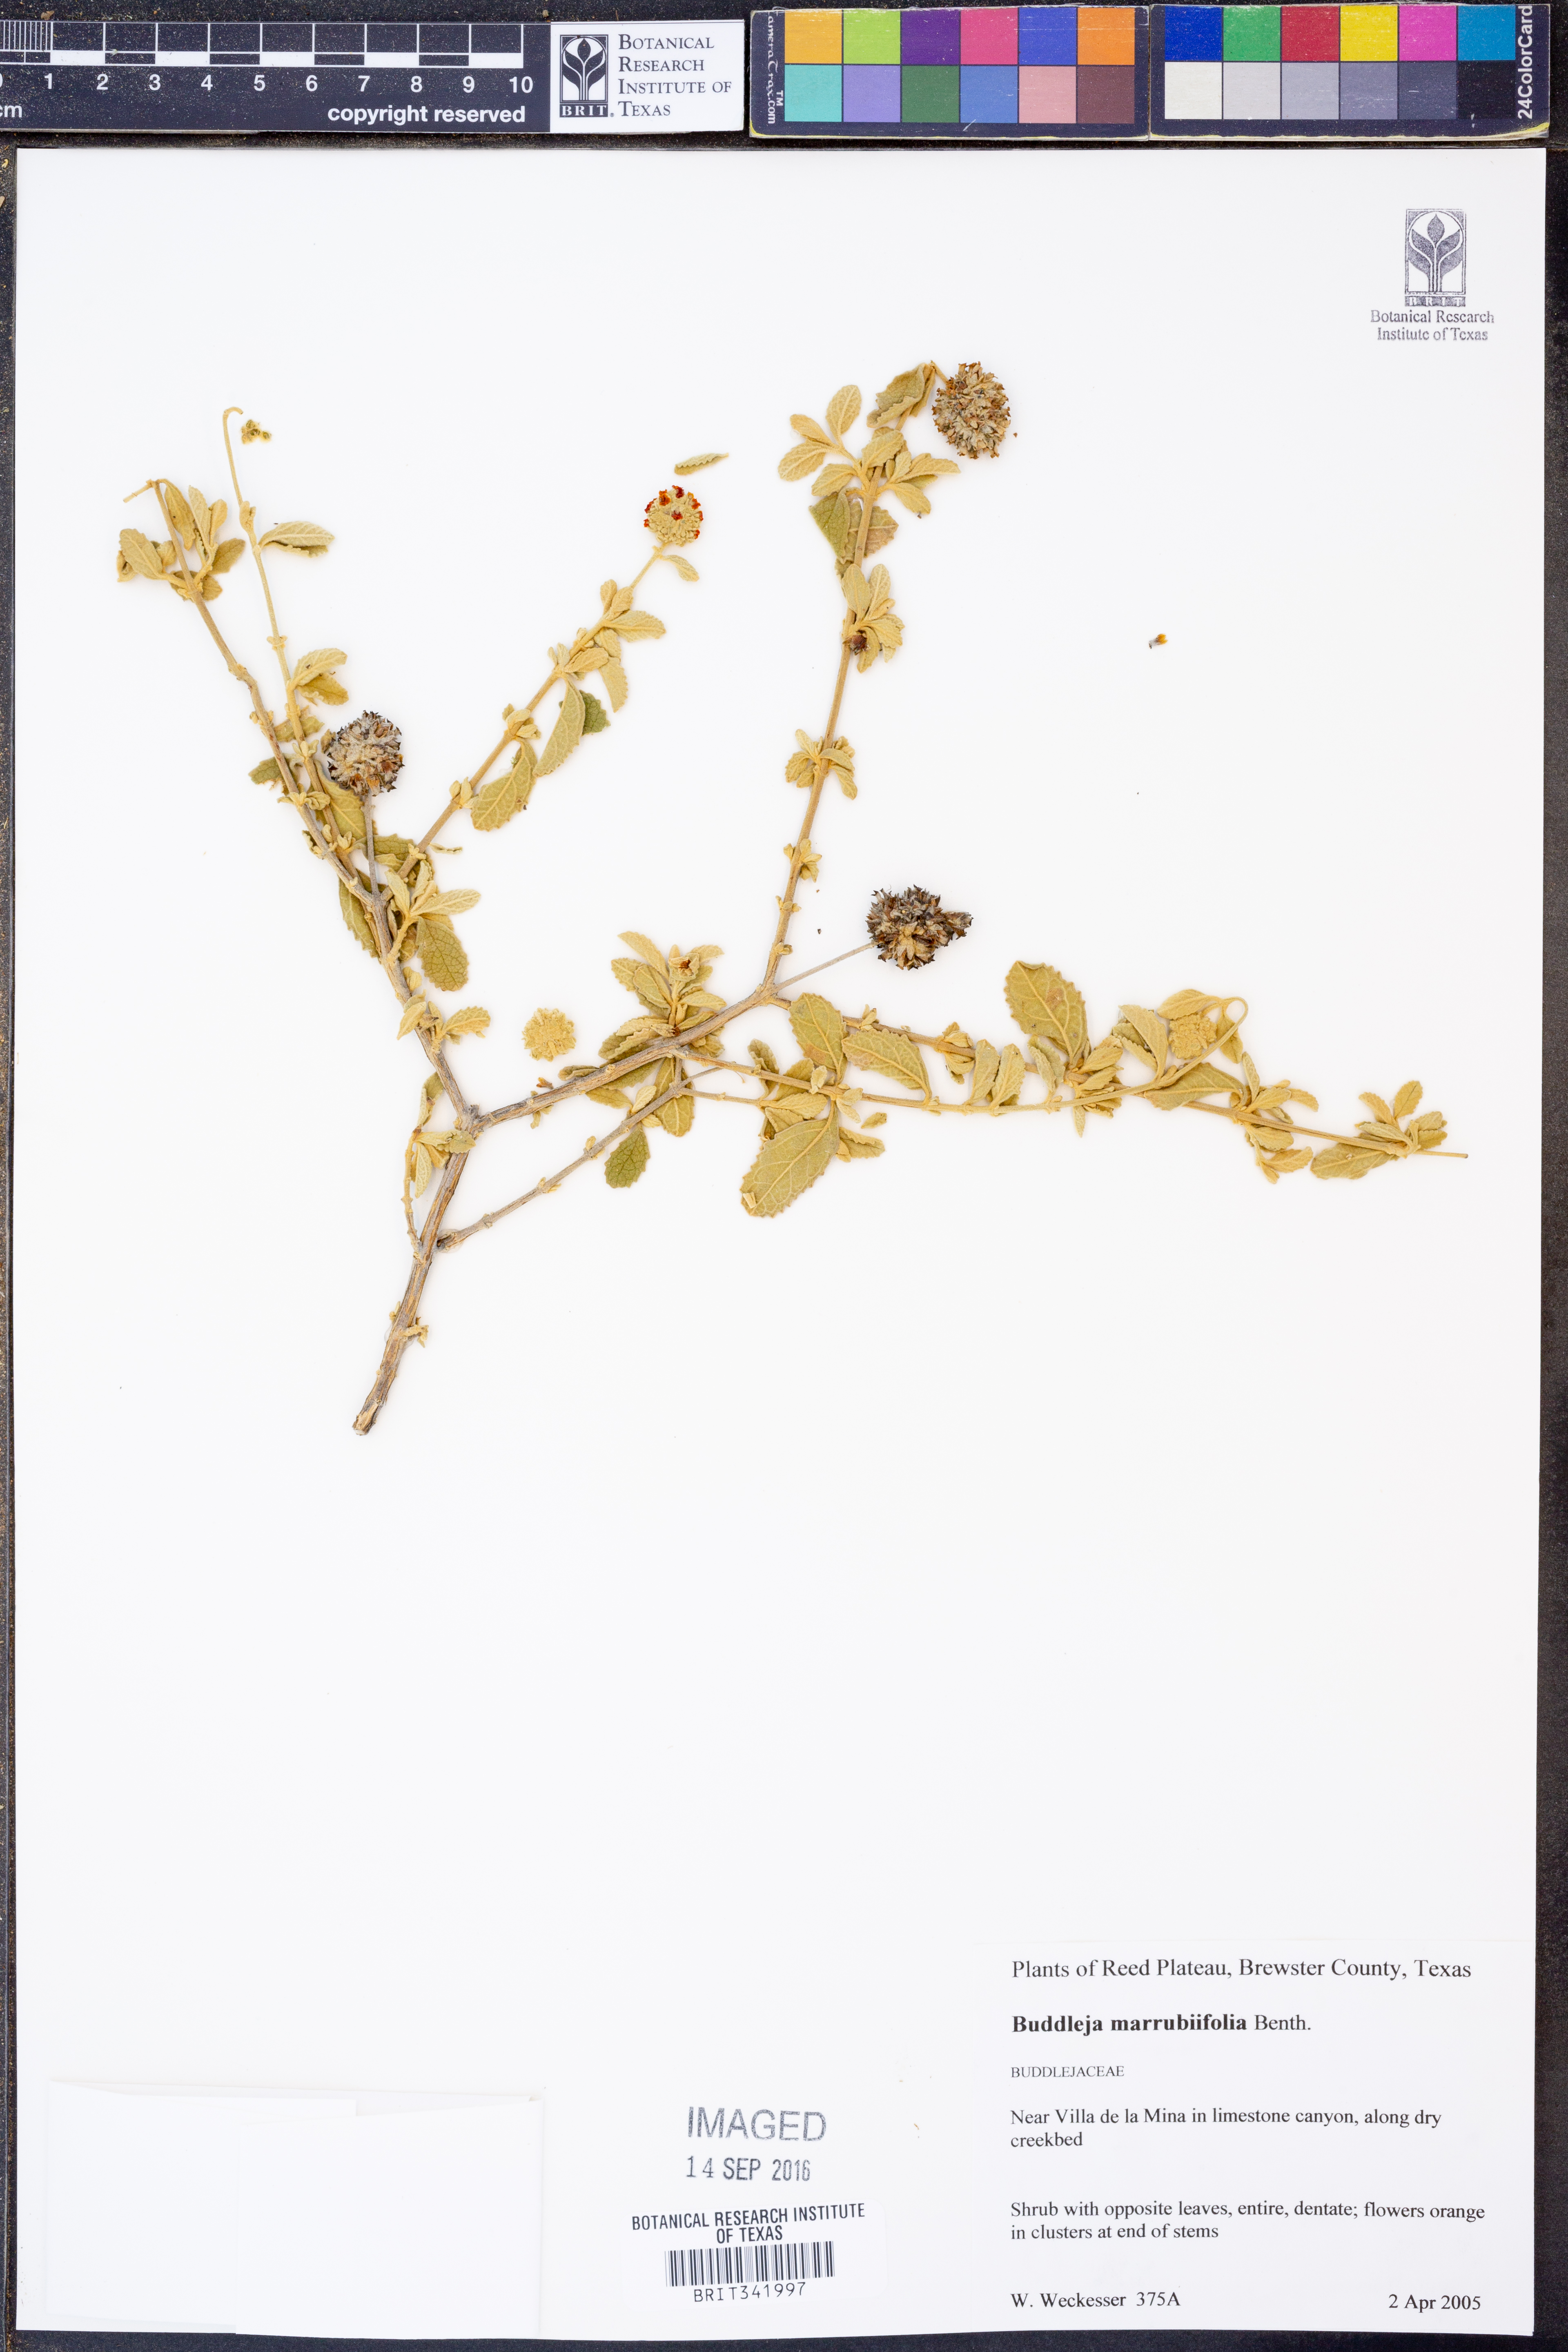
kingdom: Plantae
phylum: Tracheophyta
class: Magnoliopsida
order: Lamiales
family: Scrophulariaceae
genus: Buddleja
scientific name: Buddleja marrubiifolia
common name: Woolly butterfly-bush
